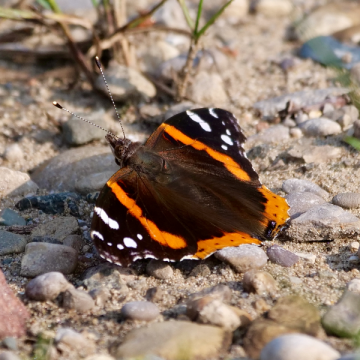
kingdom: Animalia
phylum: Arthropoda
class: Insecta
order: Lepidoptera
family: Nymphalidae
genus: Vanessa
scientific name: Vanessa atalanta
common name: Red Admiral
